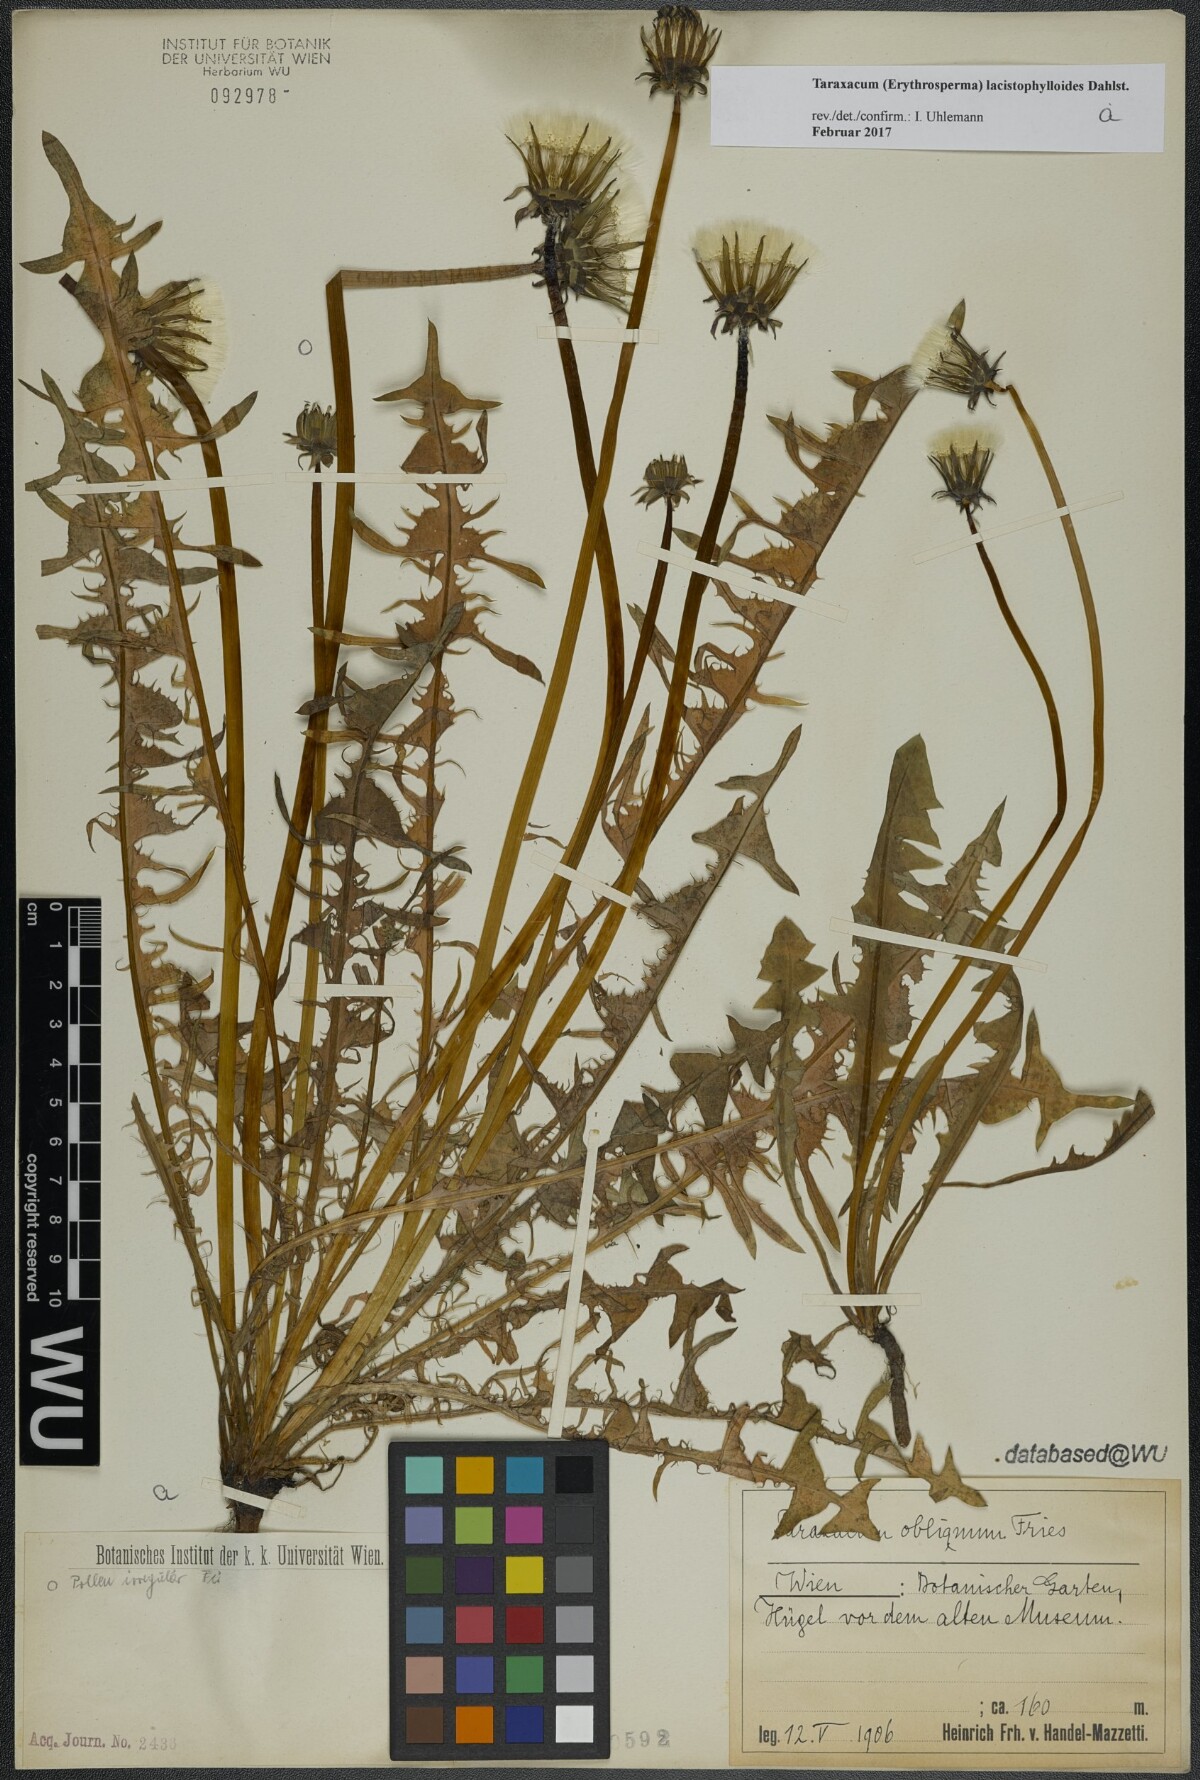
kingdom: Plantae
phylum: Tracheophyta
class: Magnoliopsida
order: Asterales
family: Asteraceae
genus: Taraxacum
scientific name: Taraxacum lacistophylloides
